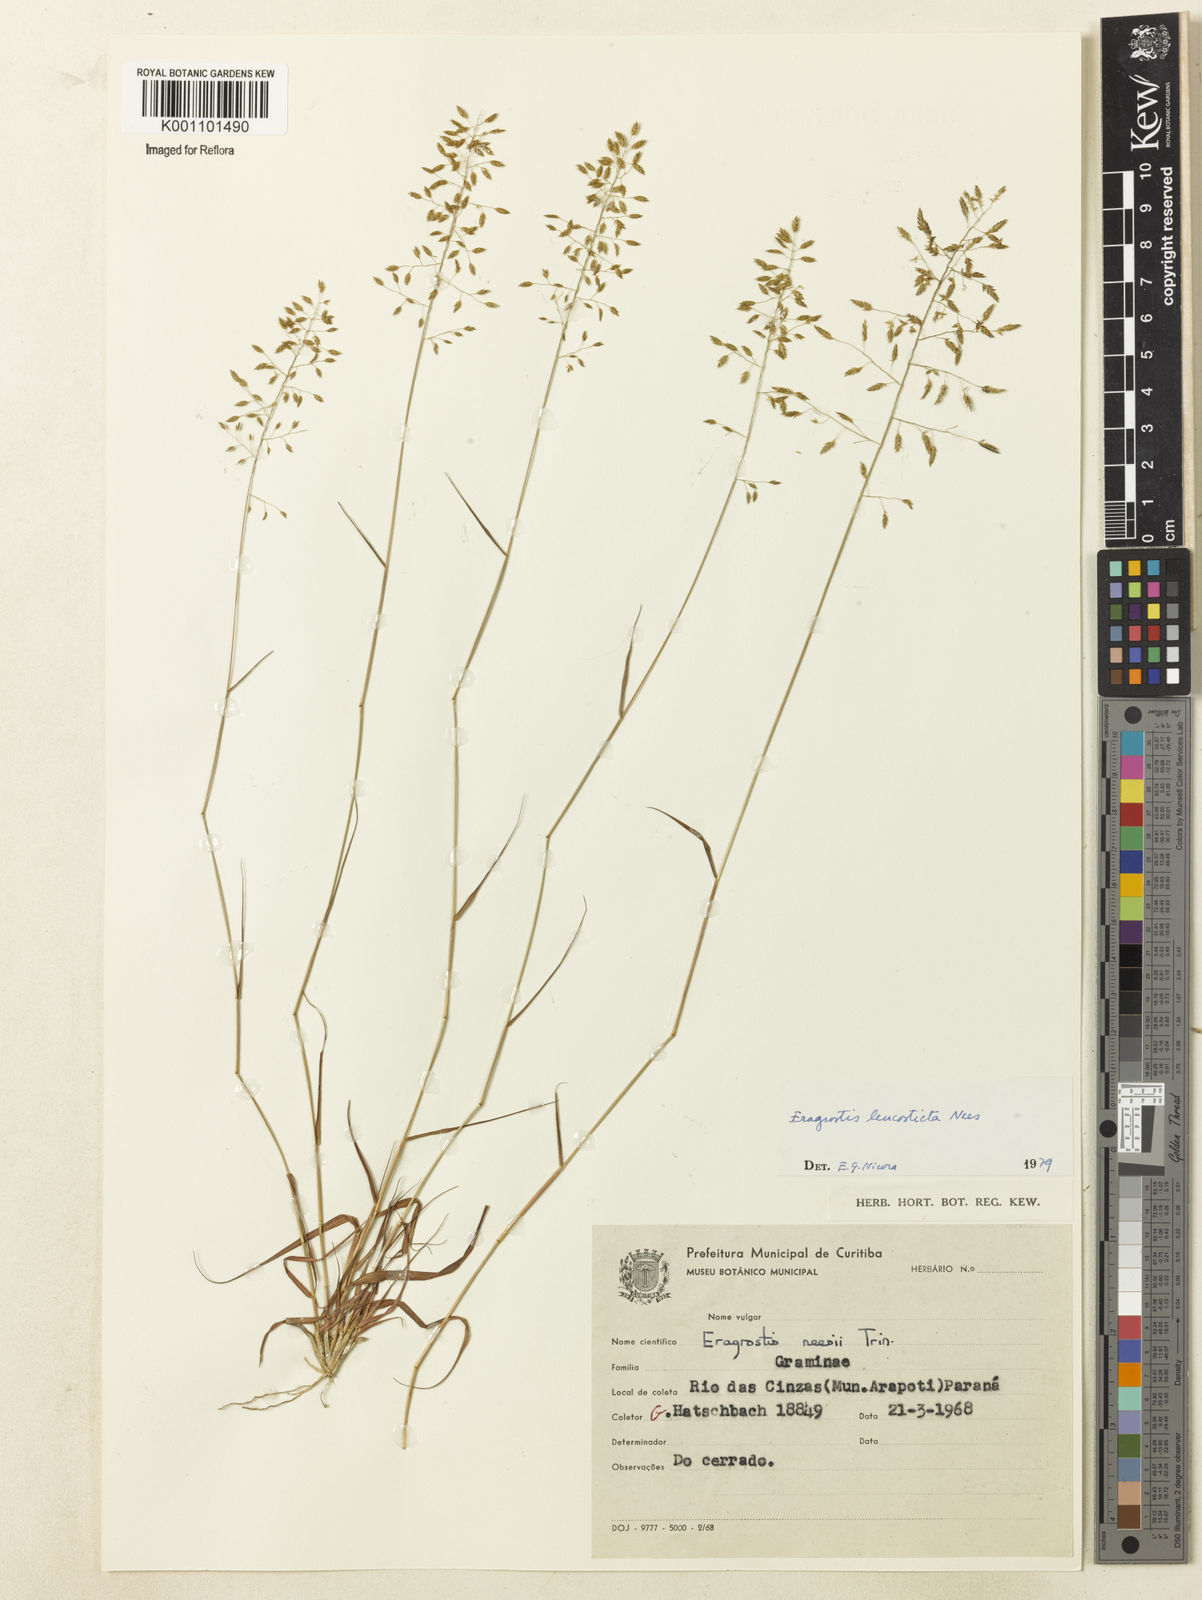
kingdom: Plantae
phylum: Tracheophyta
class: Liliopsida
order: Poales
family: Poaceae
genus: Eragrostis
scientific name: Eragrostis
